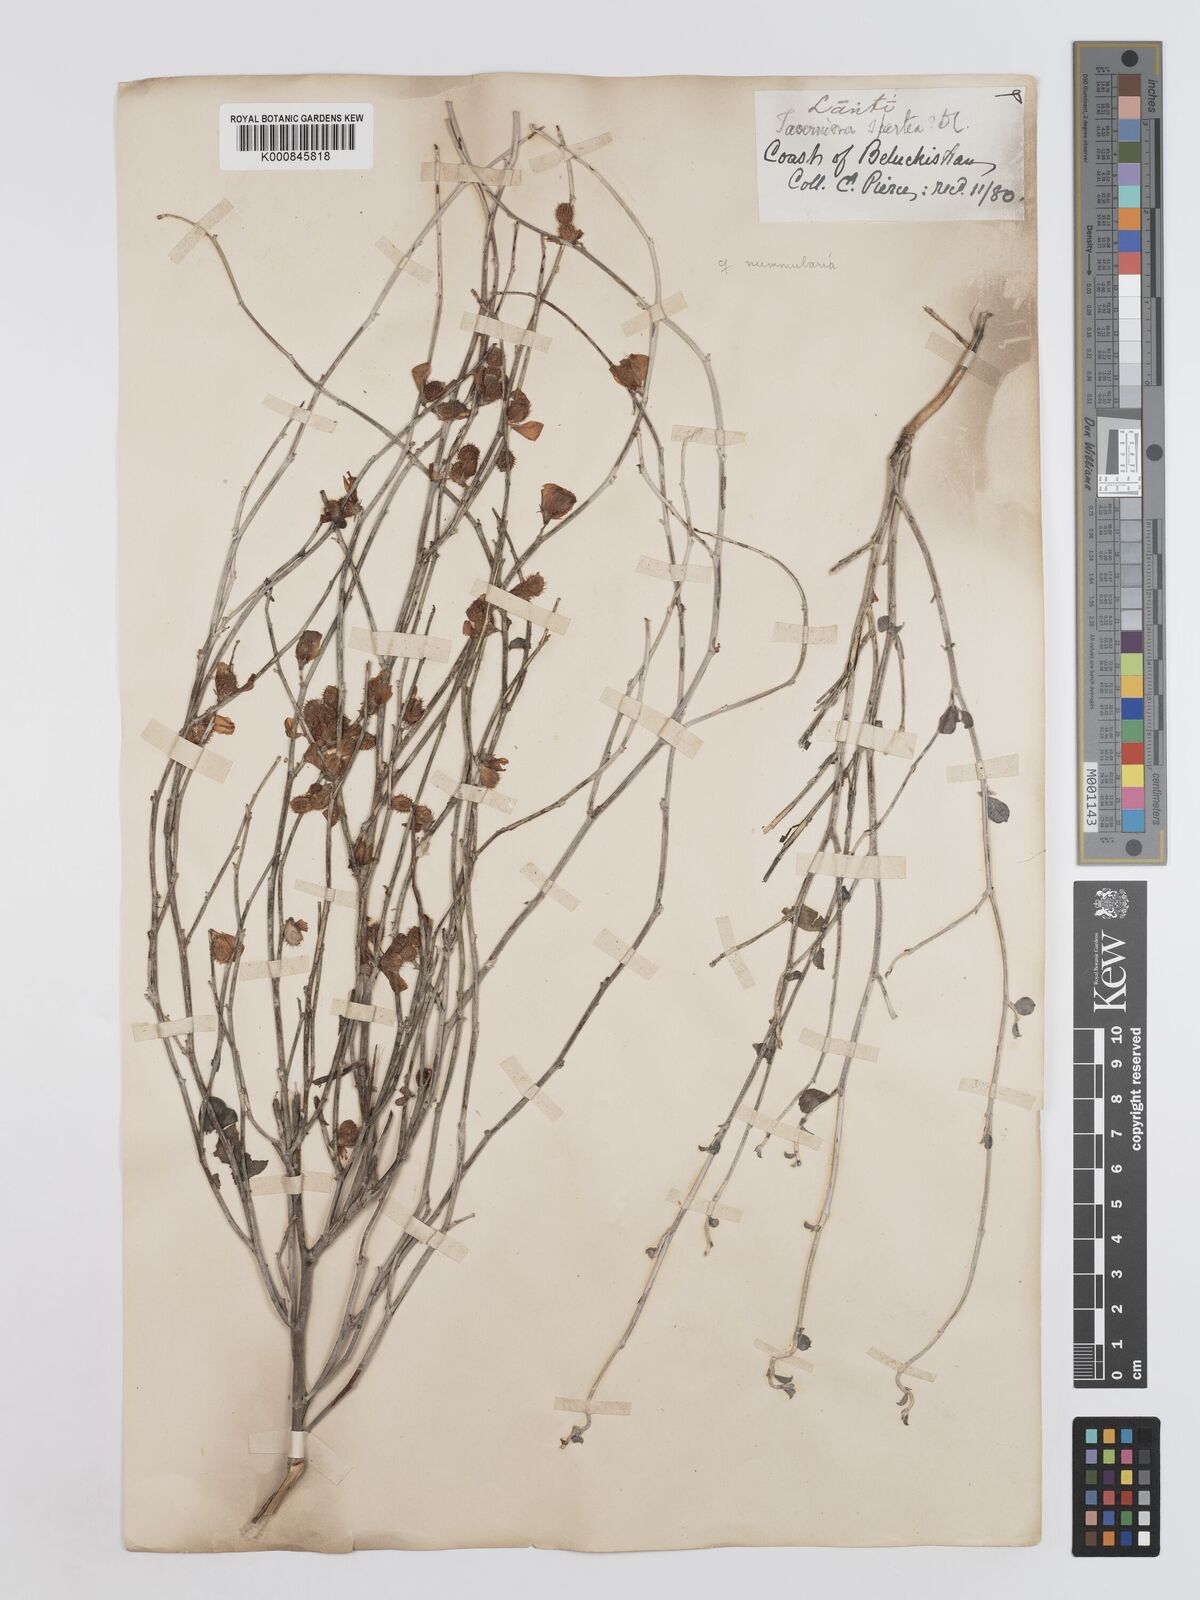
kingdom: Plantae
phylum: Tracheophyta
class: Magnoliopsida
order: Fabales
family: Fabaceae
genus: Taverniera
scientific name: Taverniera spartea
